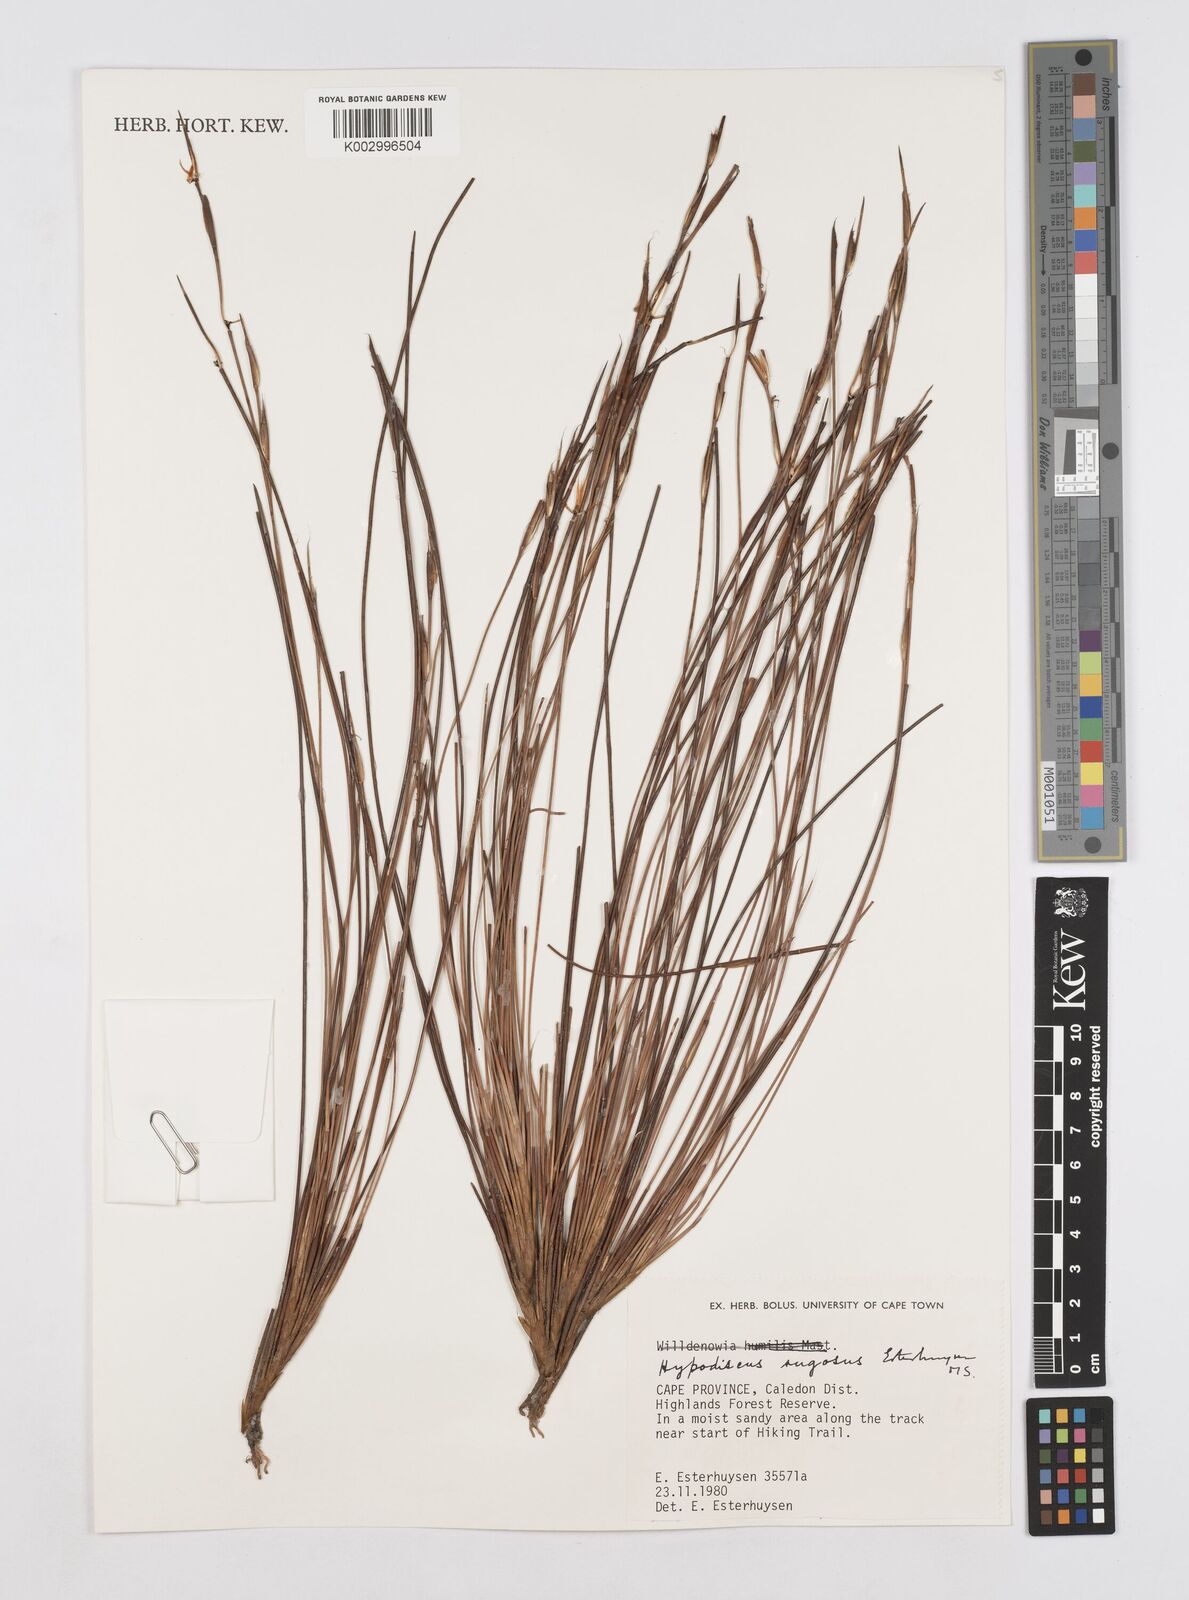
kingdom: Plantae
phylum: Tracheophyta
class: Liliopsida
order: Poales
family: Restionaceae
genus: Hypodiscus
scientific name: Hypodiscus rugosus
